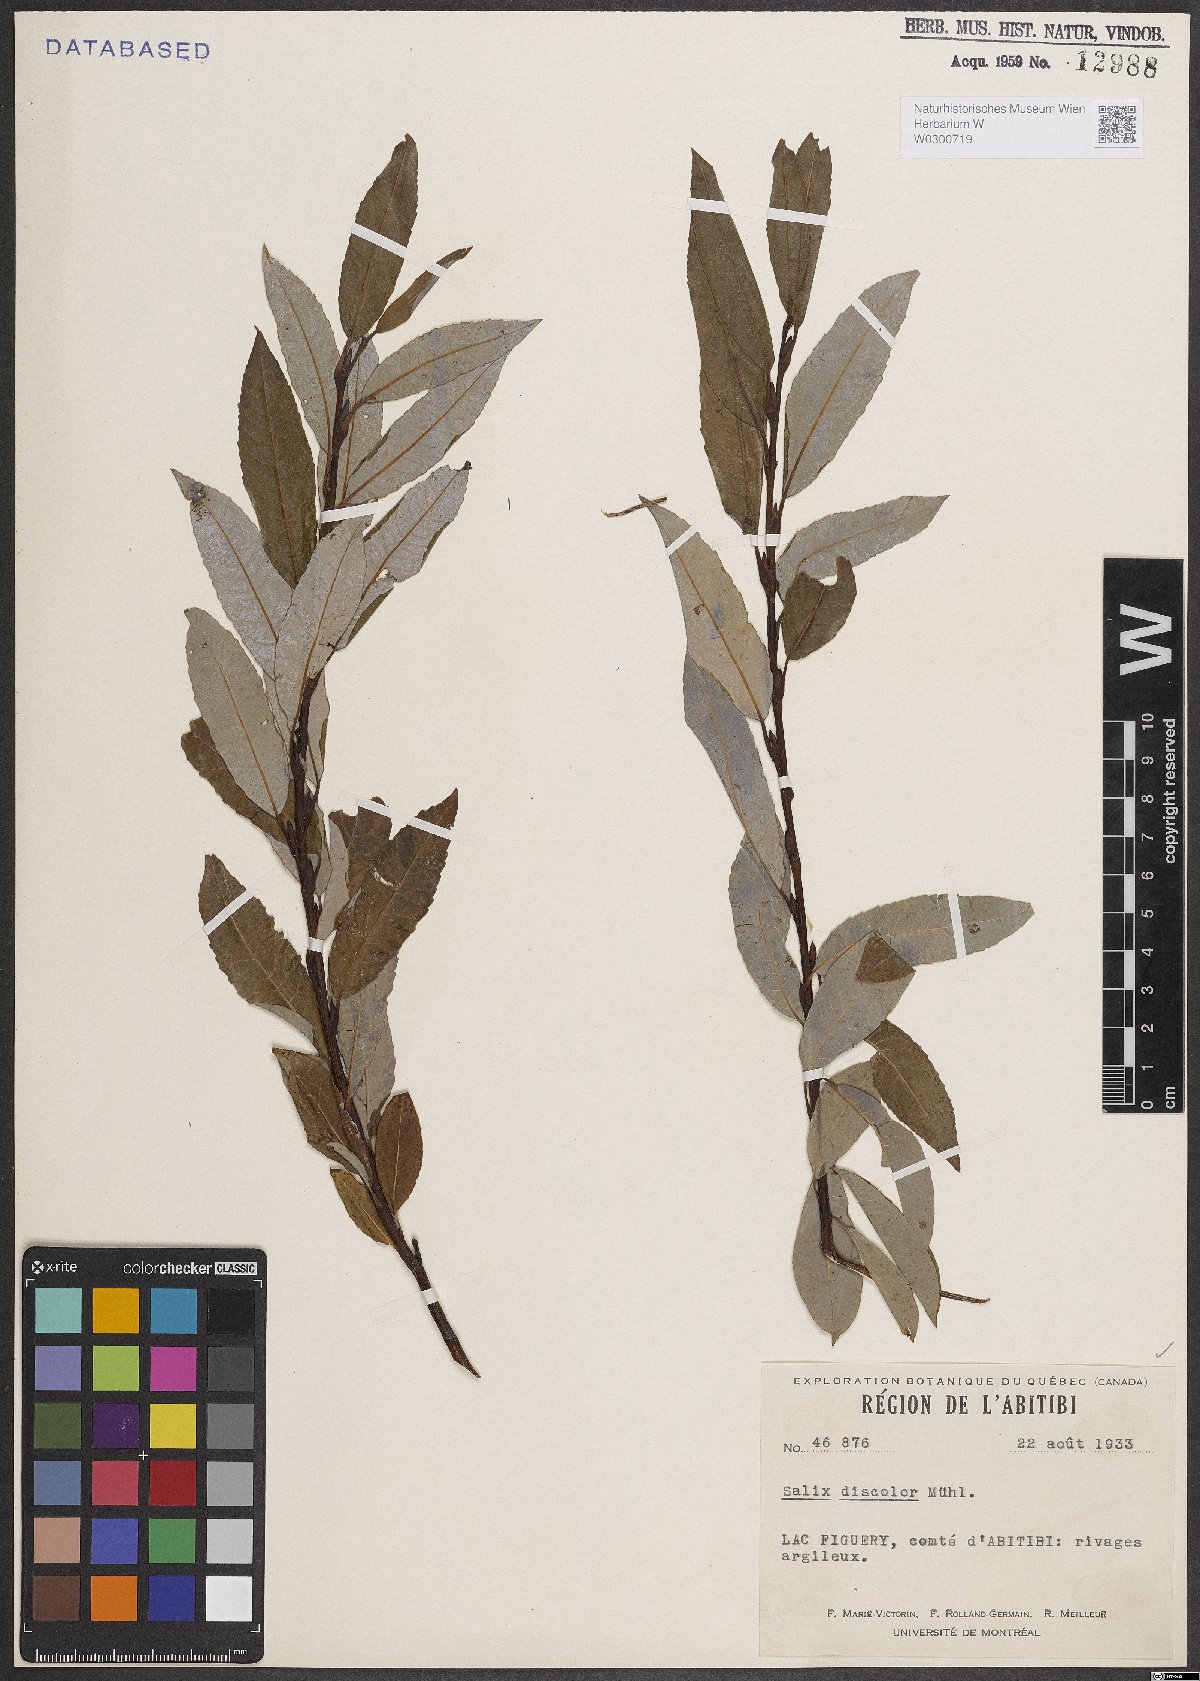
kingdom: Plantae
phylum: Tracheophyta
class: Magnoliopsida
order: Malpighiales
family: Salicaceae
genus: Salix
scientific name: Salix discolor
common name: Glaucous willow
